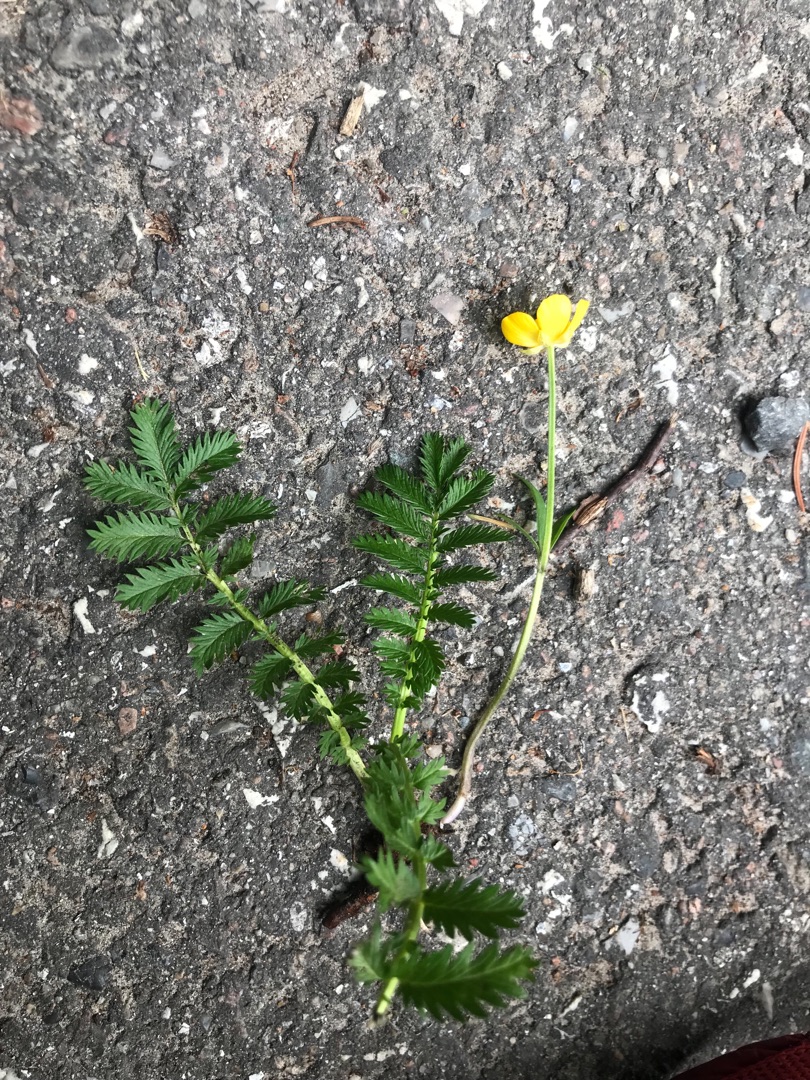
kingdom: Plantae
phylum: Tracheophyta
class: Magnoliopsida
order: Rosales
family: Rosaceae
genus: Argentina
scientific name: Argentina anserina
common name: Gåsepotentil
